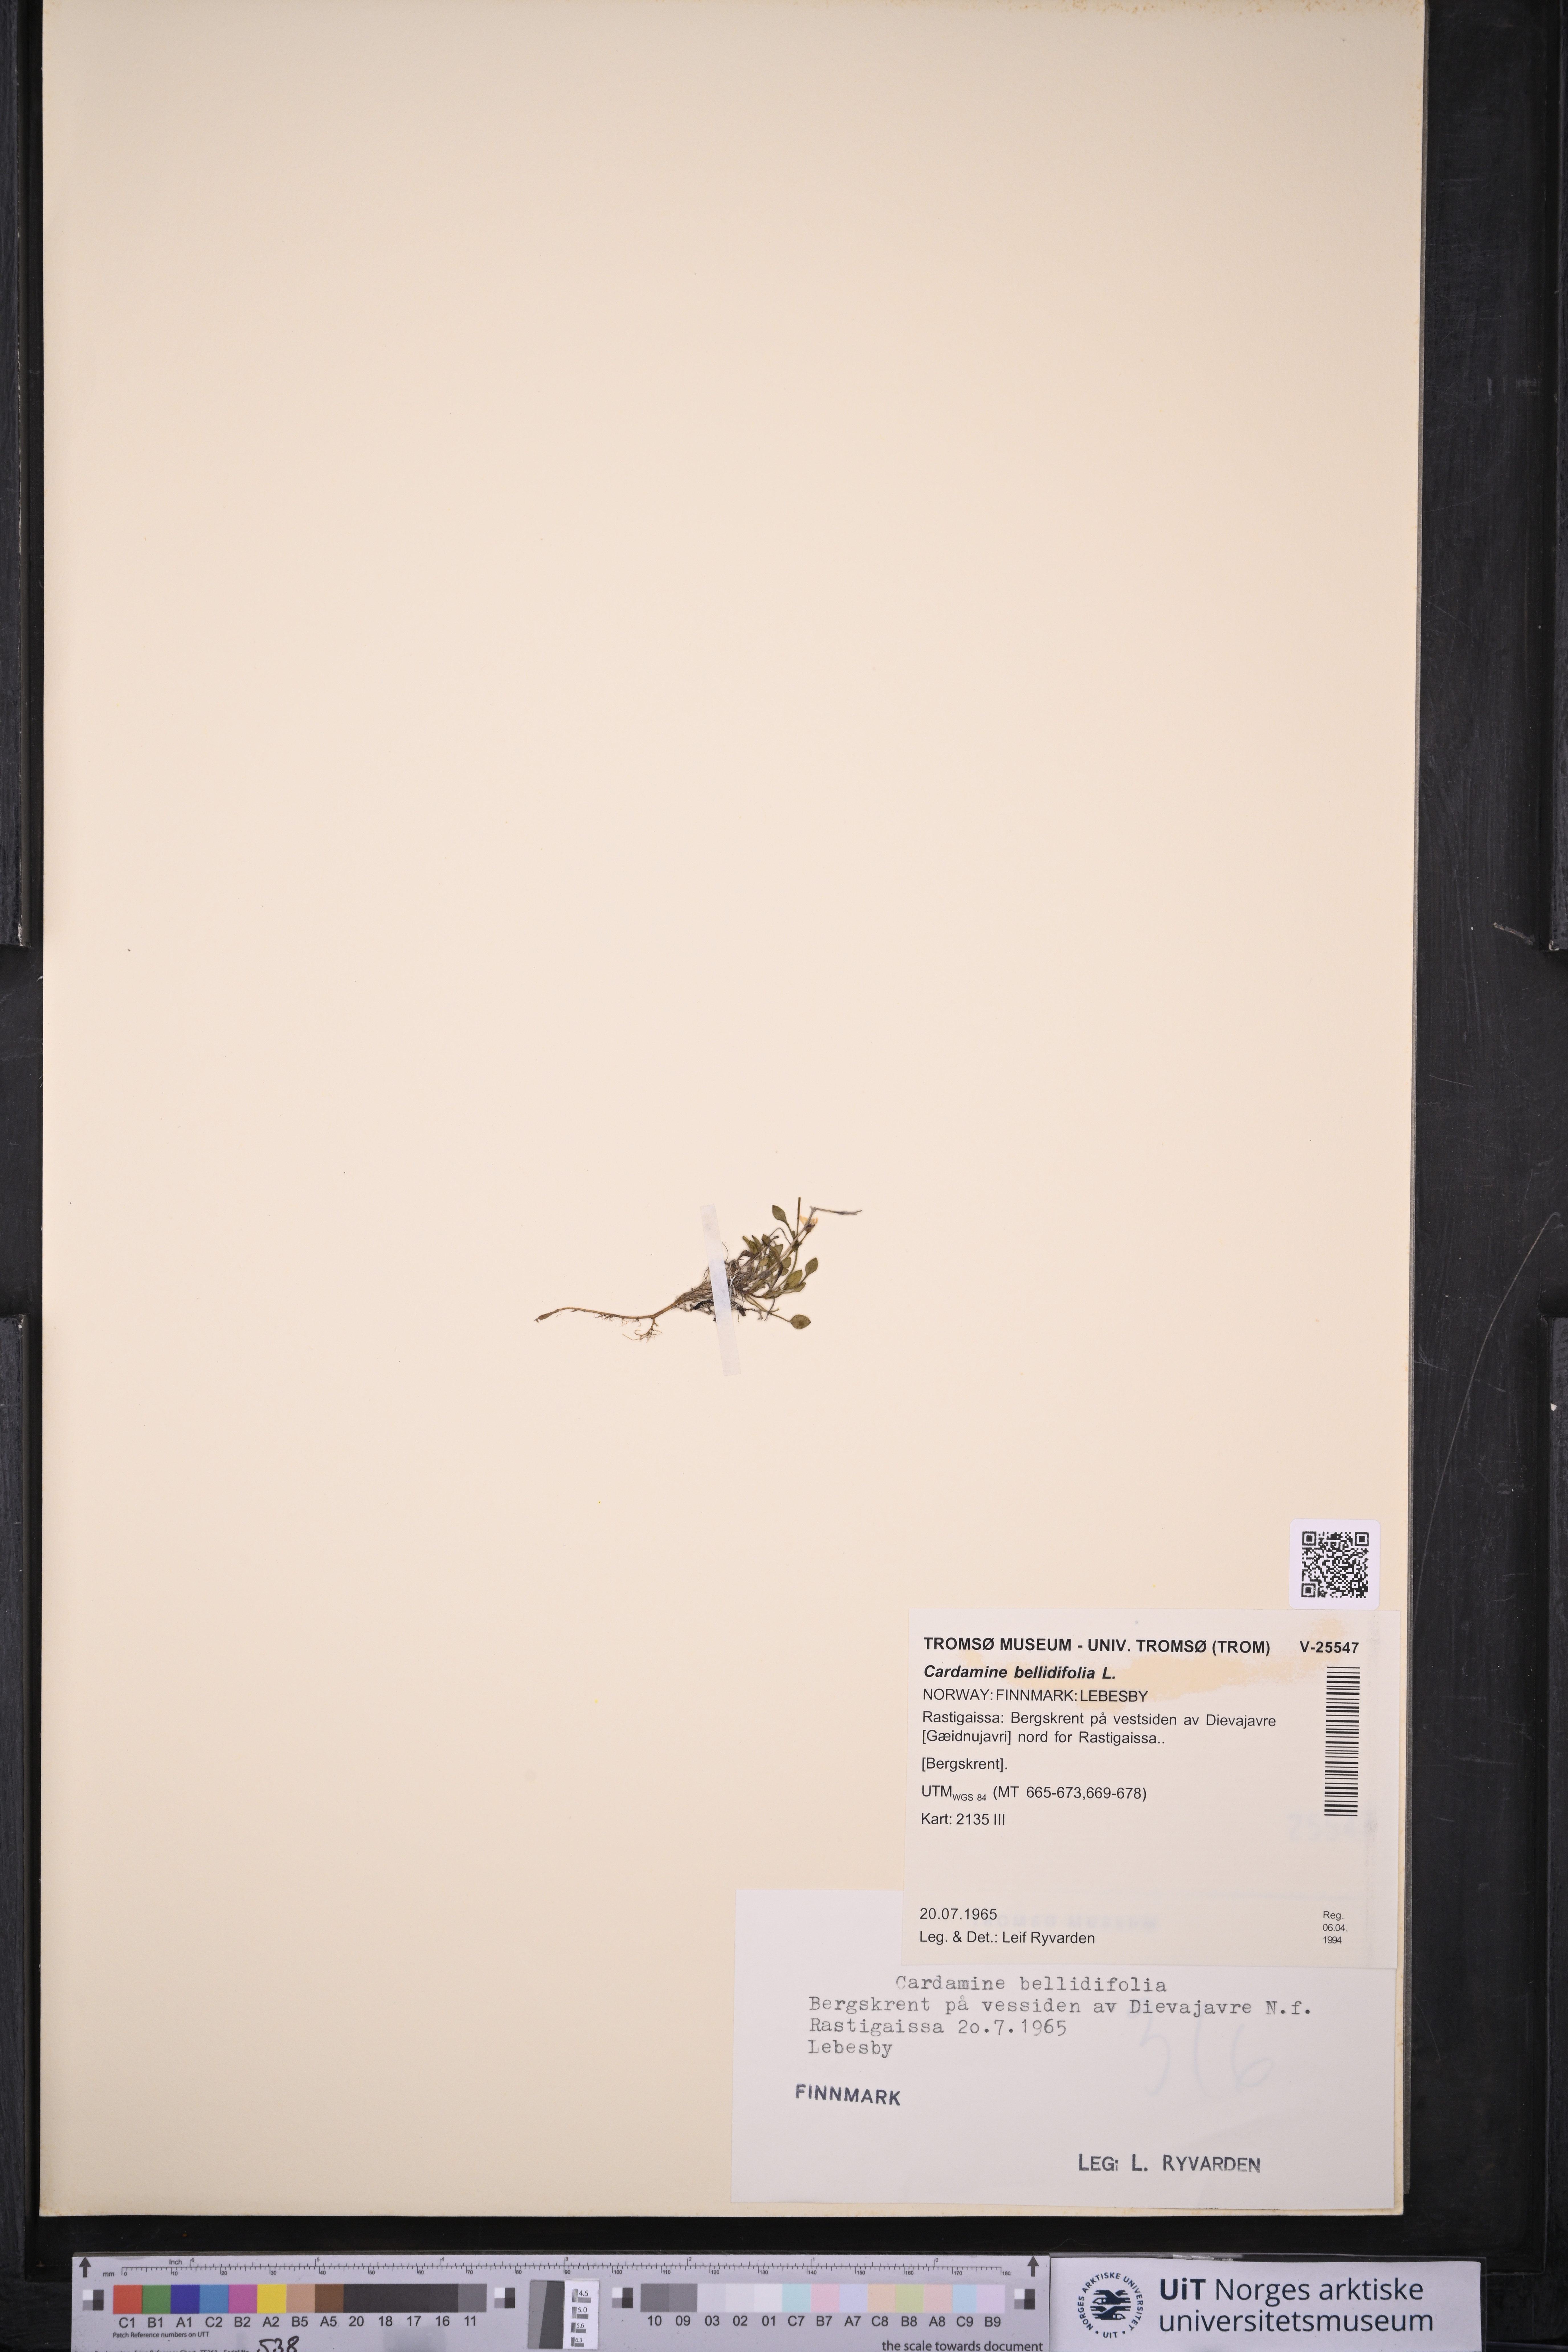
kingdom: Plantae
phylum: Tracheophyta
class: Magnoliopsida
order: Brassicales
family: Brassicaceae
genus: Cardamine
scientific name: Cardamine bellidifolia
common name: Alpine bittercress
